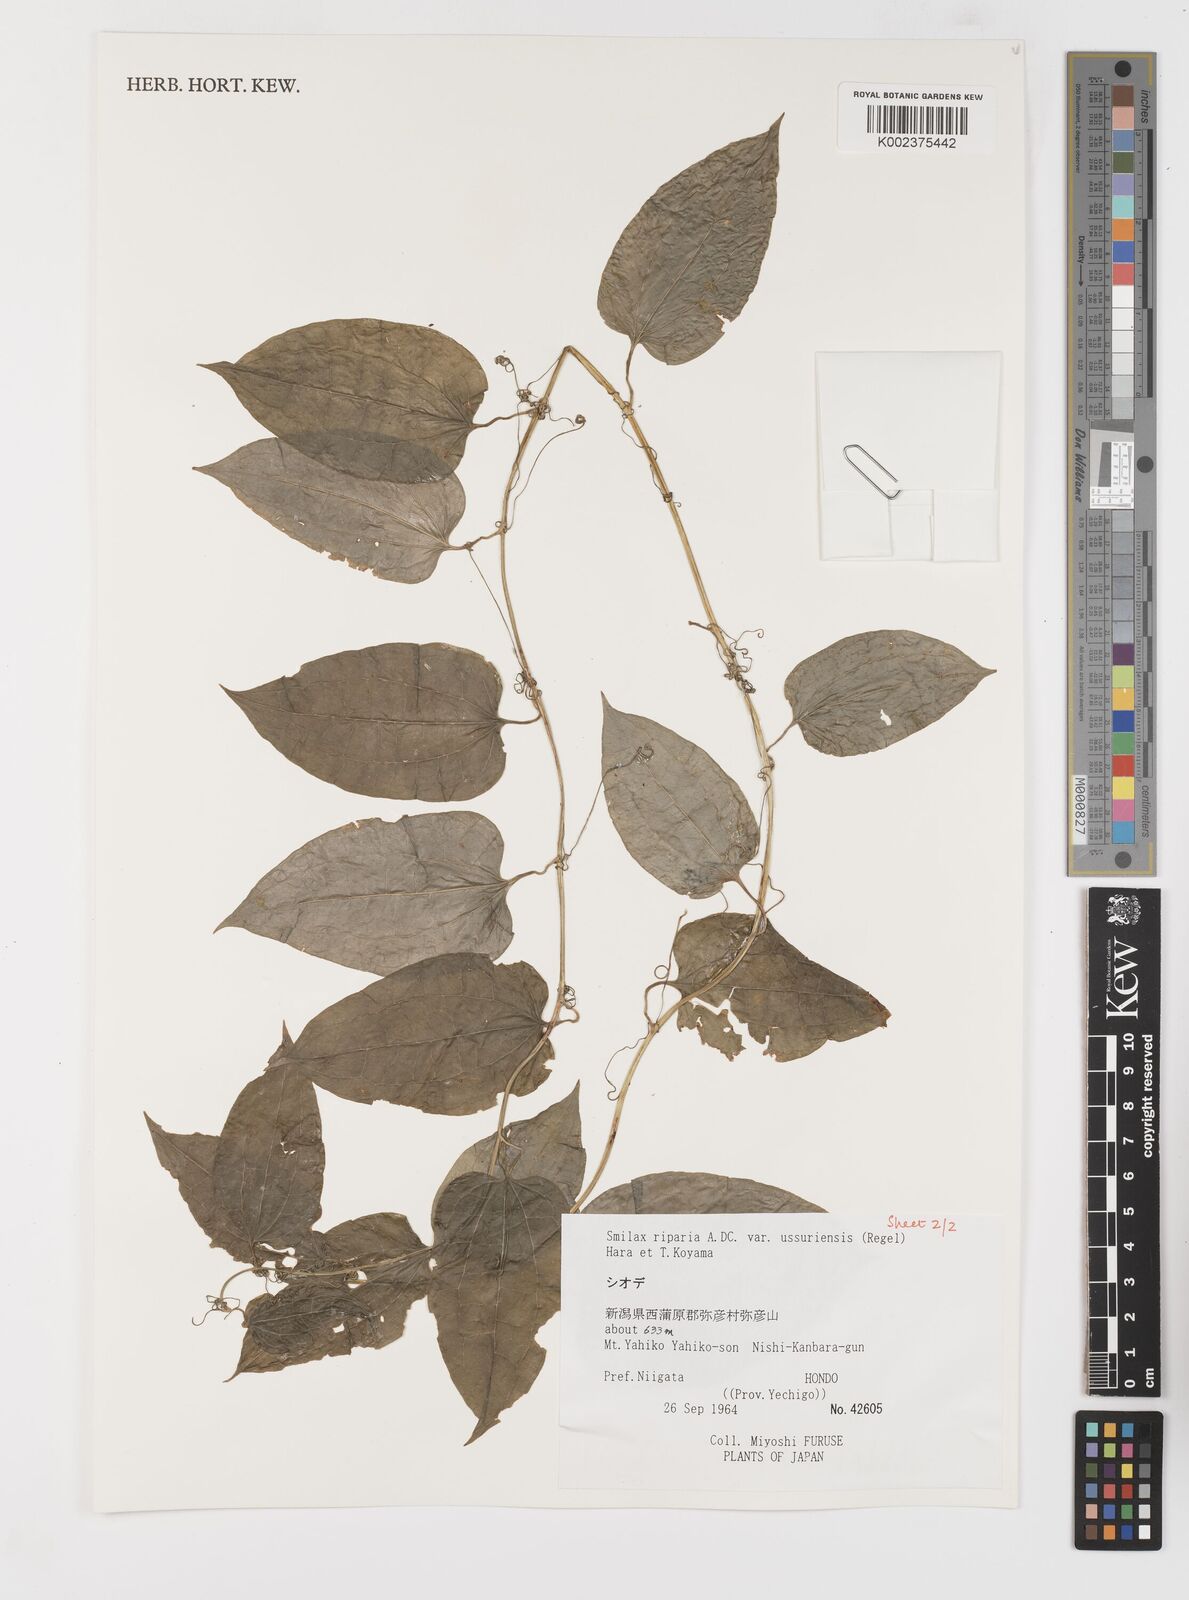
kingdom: Plantae
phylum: Tracheophyta
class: Liliopsida
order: Liliales
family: Smilacaceae
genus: Smilax
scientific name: Smilax riparia
